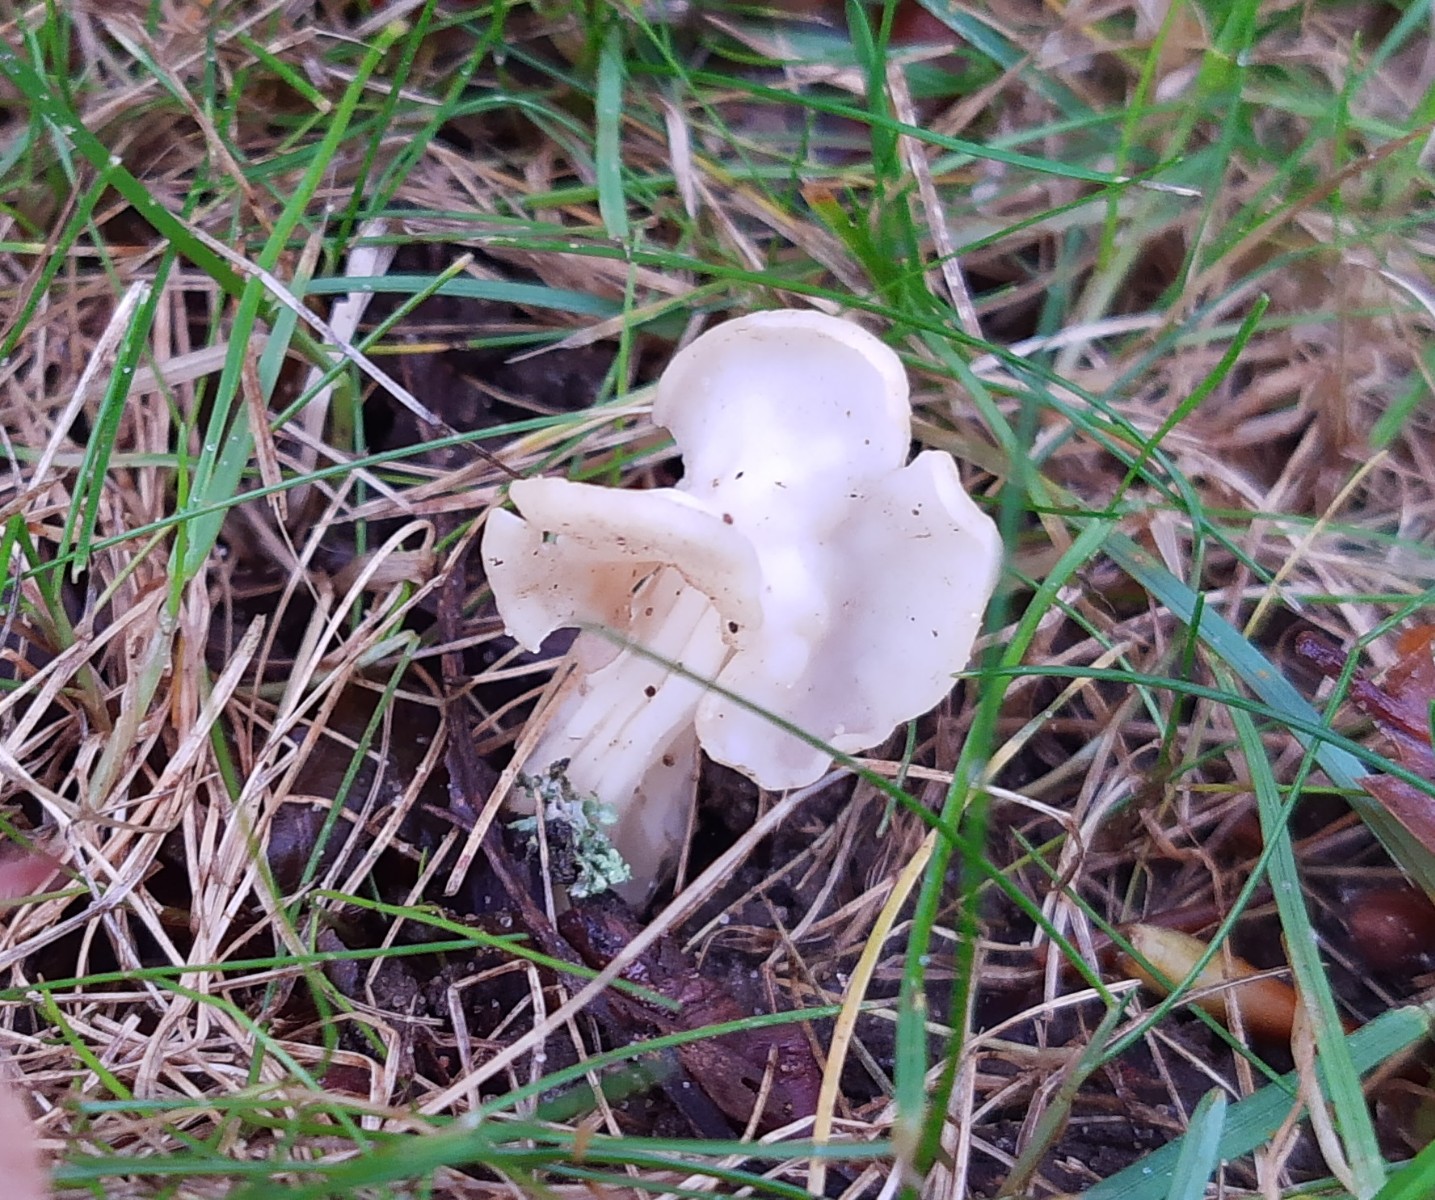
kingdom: Fungi
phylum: Ascomycota
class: Pezizomycetes
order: Pezizales
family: Helvellaceae
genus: Helvella
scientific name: Helvella crispa
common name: kruset foldhat
